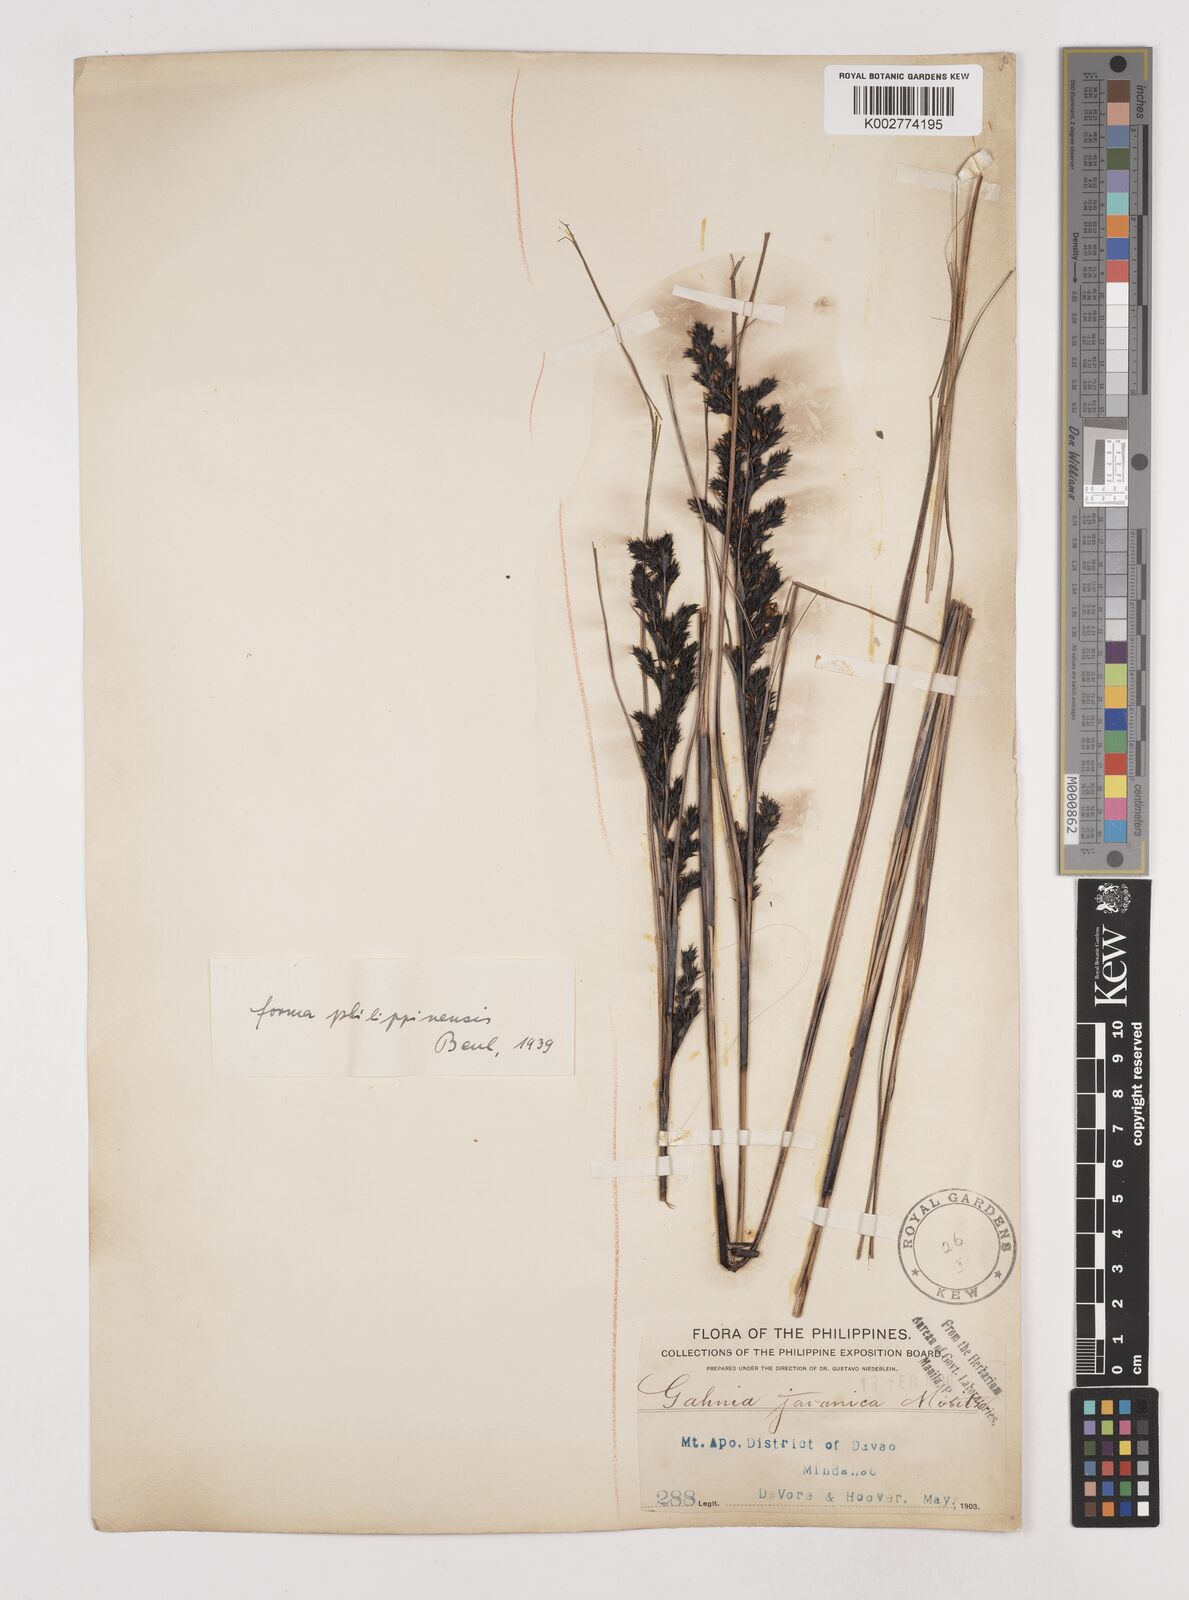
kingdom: Plantae
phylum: Tracheophyta
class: Liliopsida
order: Poales
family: Cyperaceae
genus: Gahnia
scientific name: Gahnia javanica
